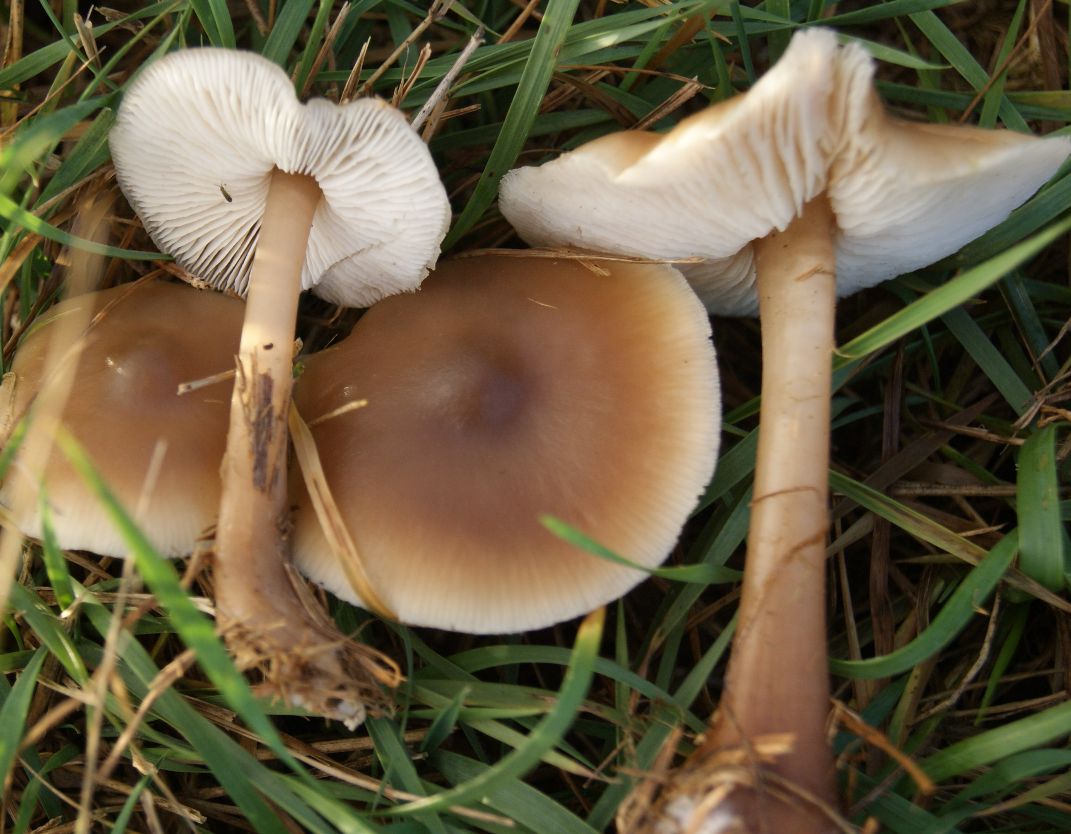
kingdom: Fungi
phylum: Basidiomycota
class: Agaricomycetes
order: Agaricales
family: Omphalotaceae
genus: Rhodocollybia
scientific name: Rhodocollybia asema
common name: horngrå fladhat
